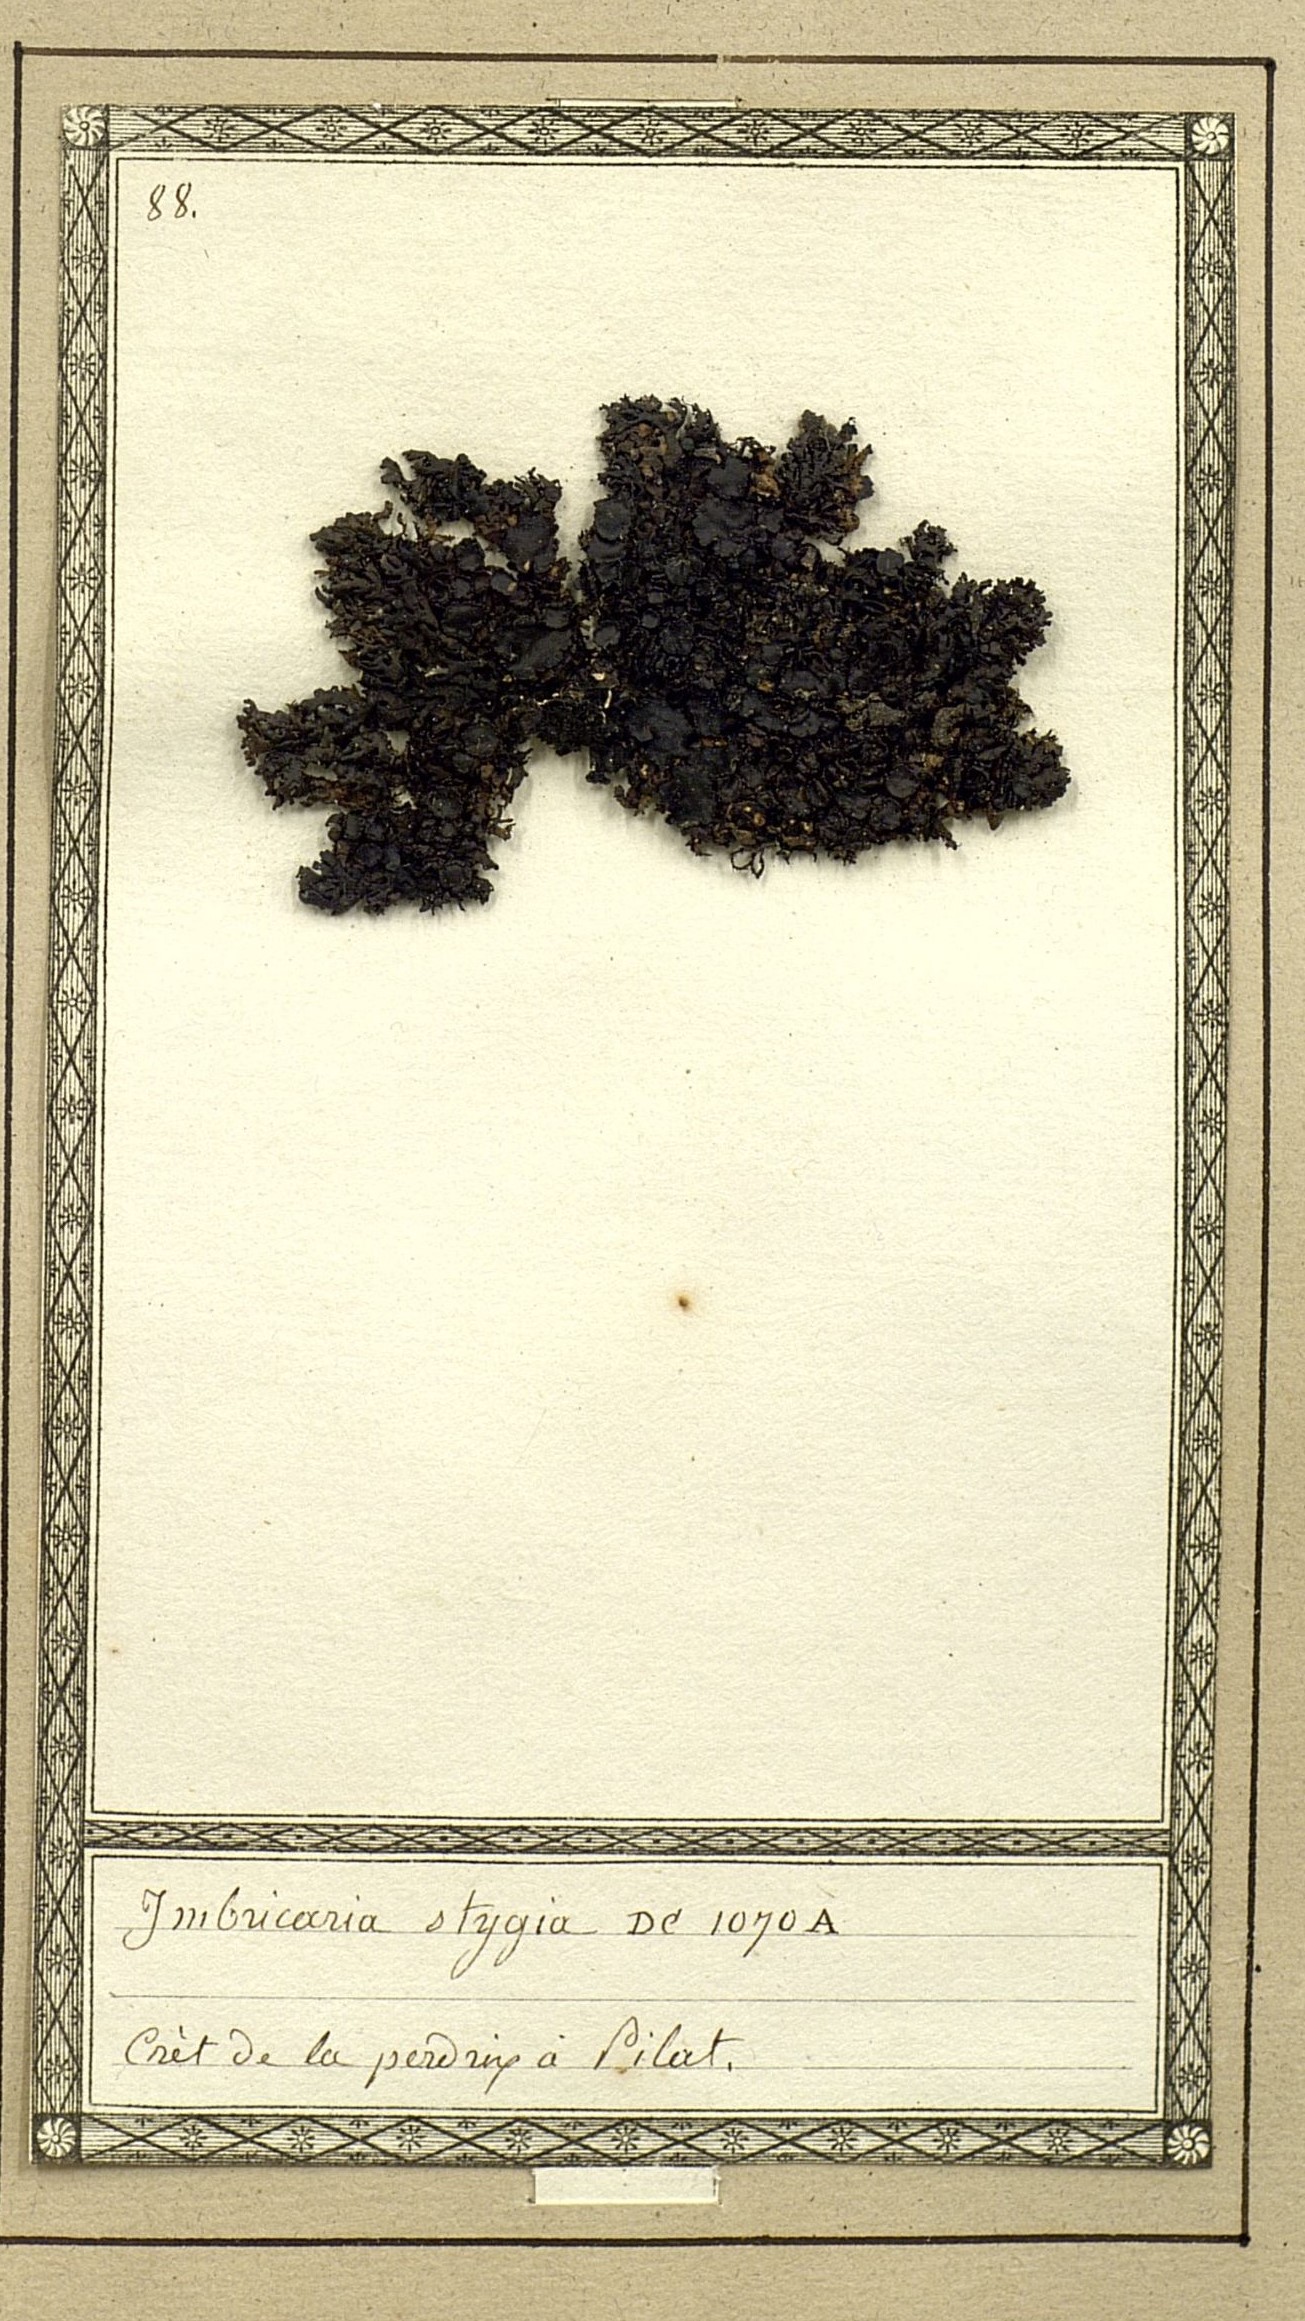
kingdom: Fungi
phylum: Ascomycota
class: Lecanoromycetes
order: Lecanorales
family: Parmeliaceae
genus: Melanelia
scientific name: Melanelia stygia
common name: Alpine camouflage lichen
